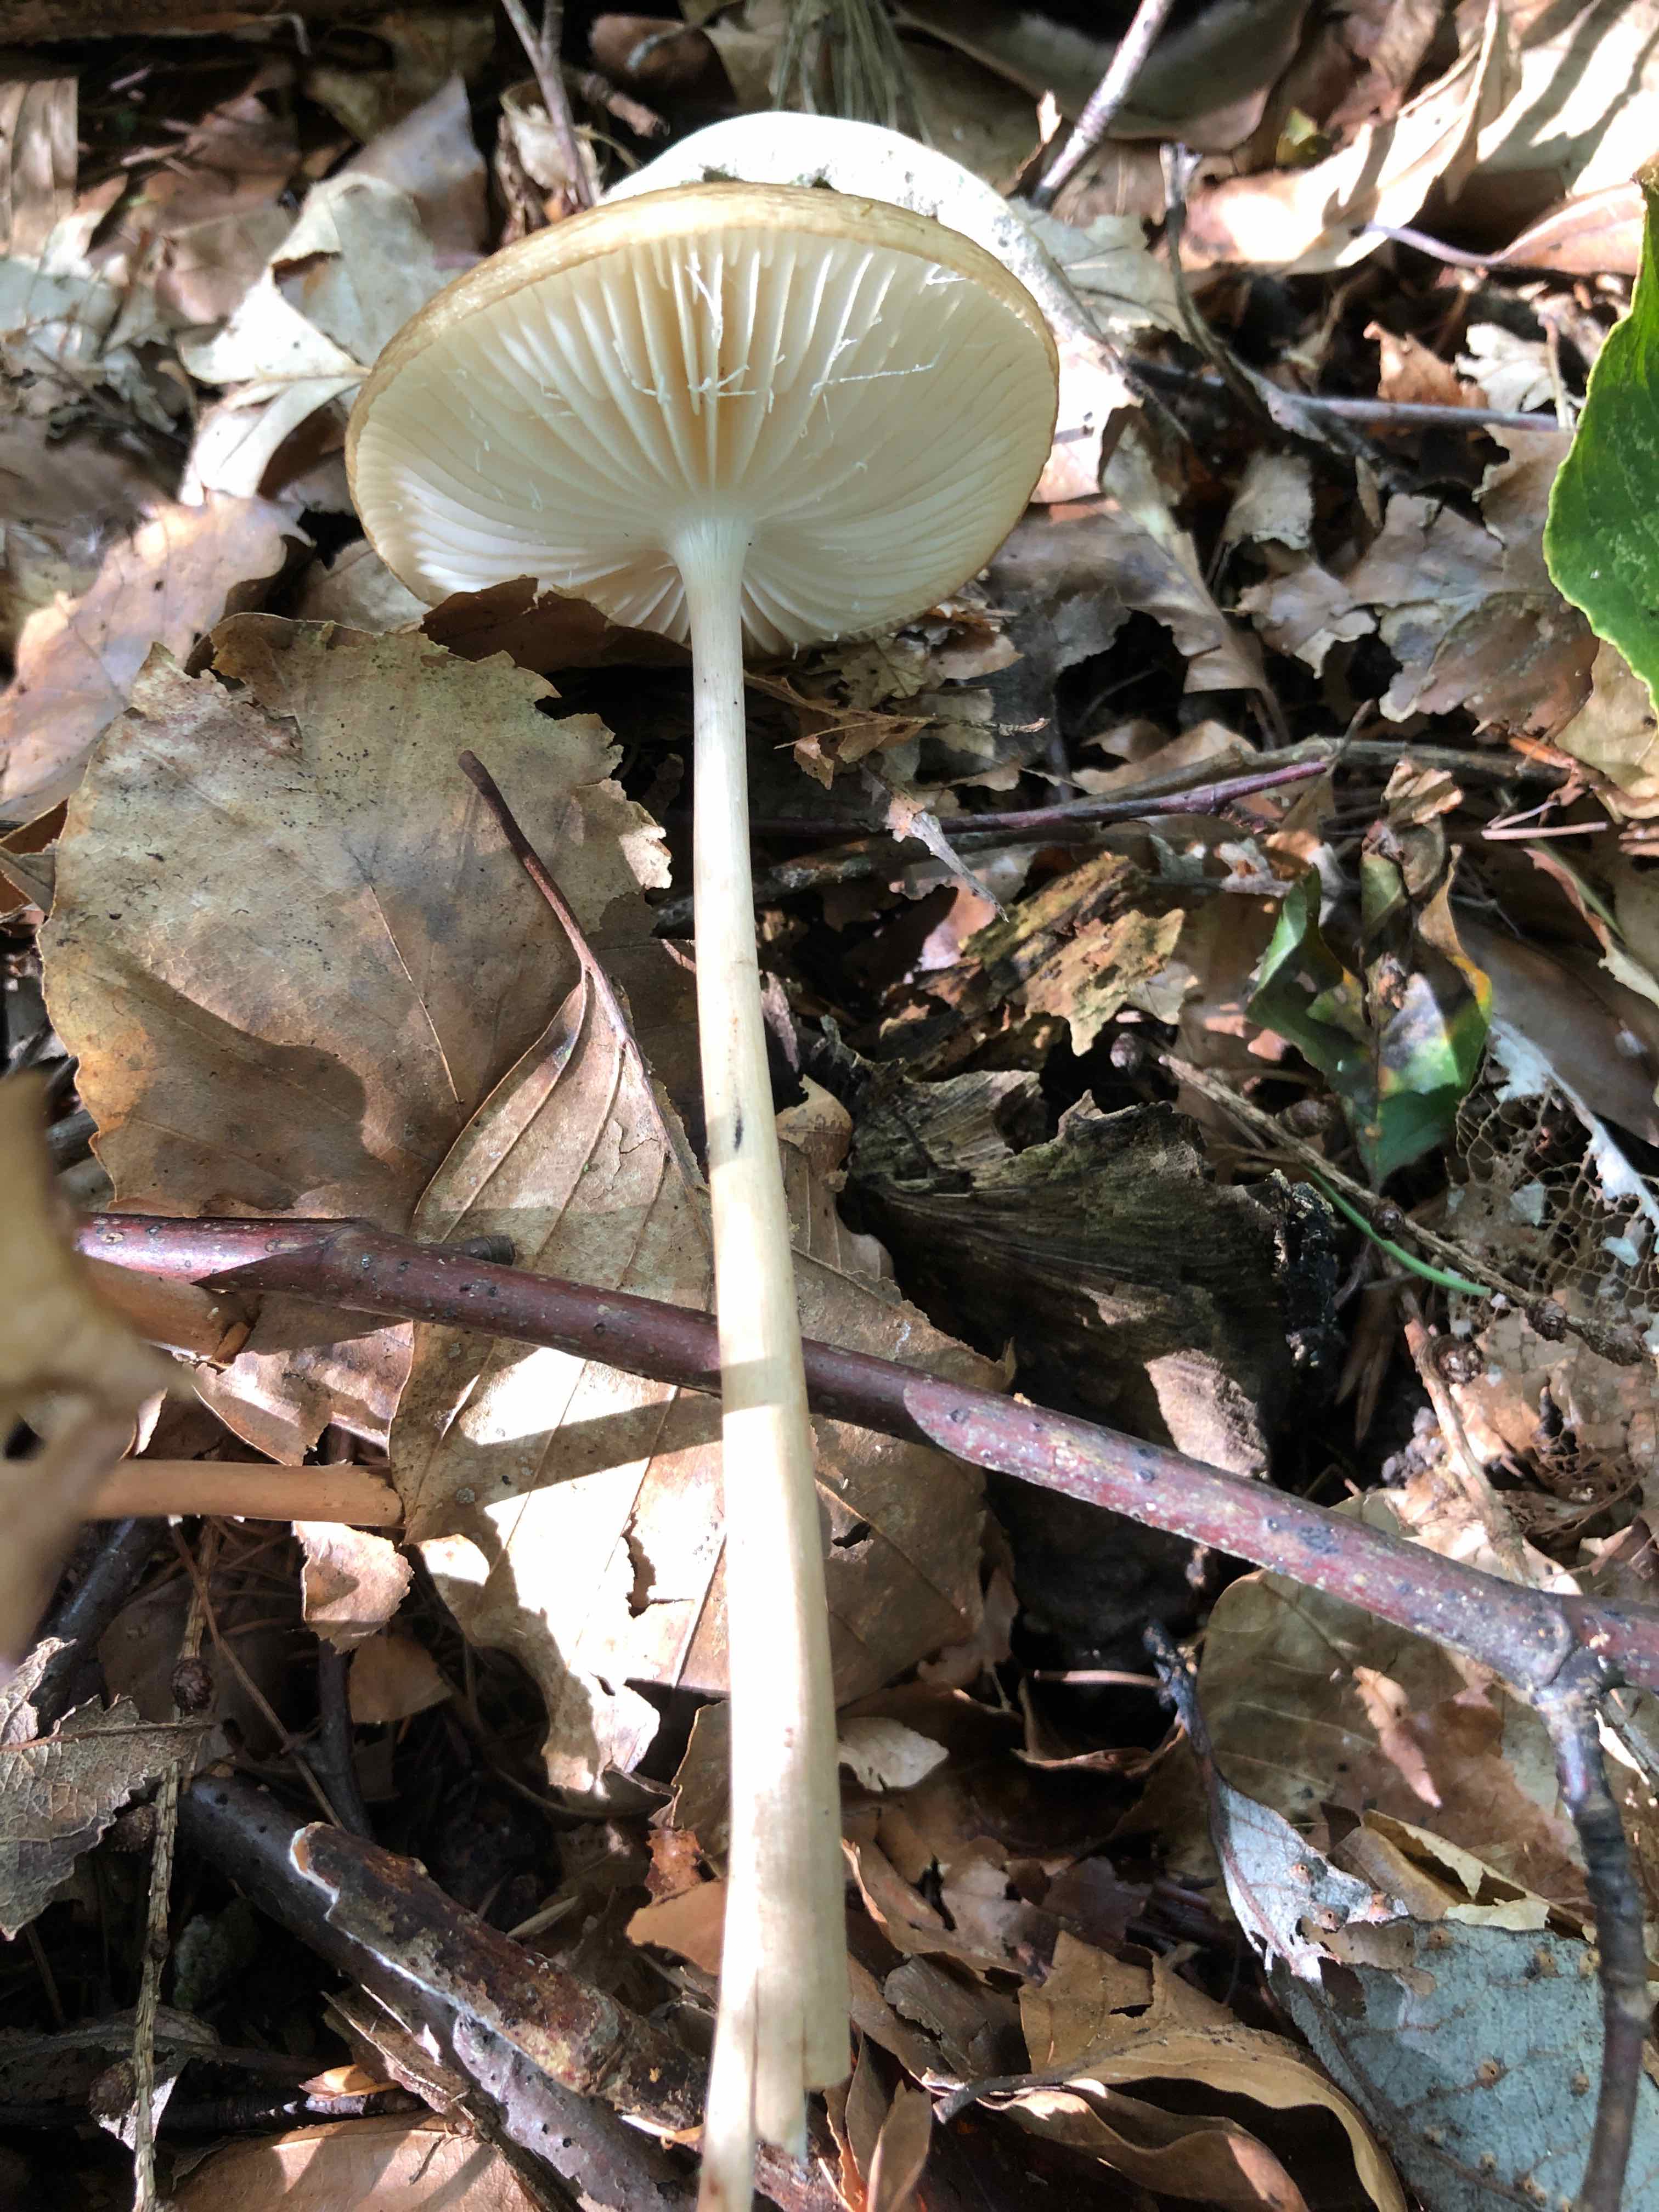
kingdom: Fungi
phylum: Basidiomycota
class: Agaricomycetes
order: Agaricales
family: Physalacriaceae
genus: Hymenopellis
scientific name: Hymenopellis radicata
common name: almindelig pælerodshat
